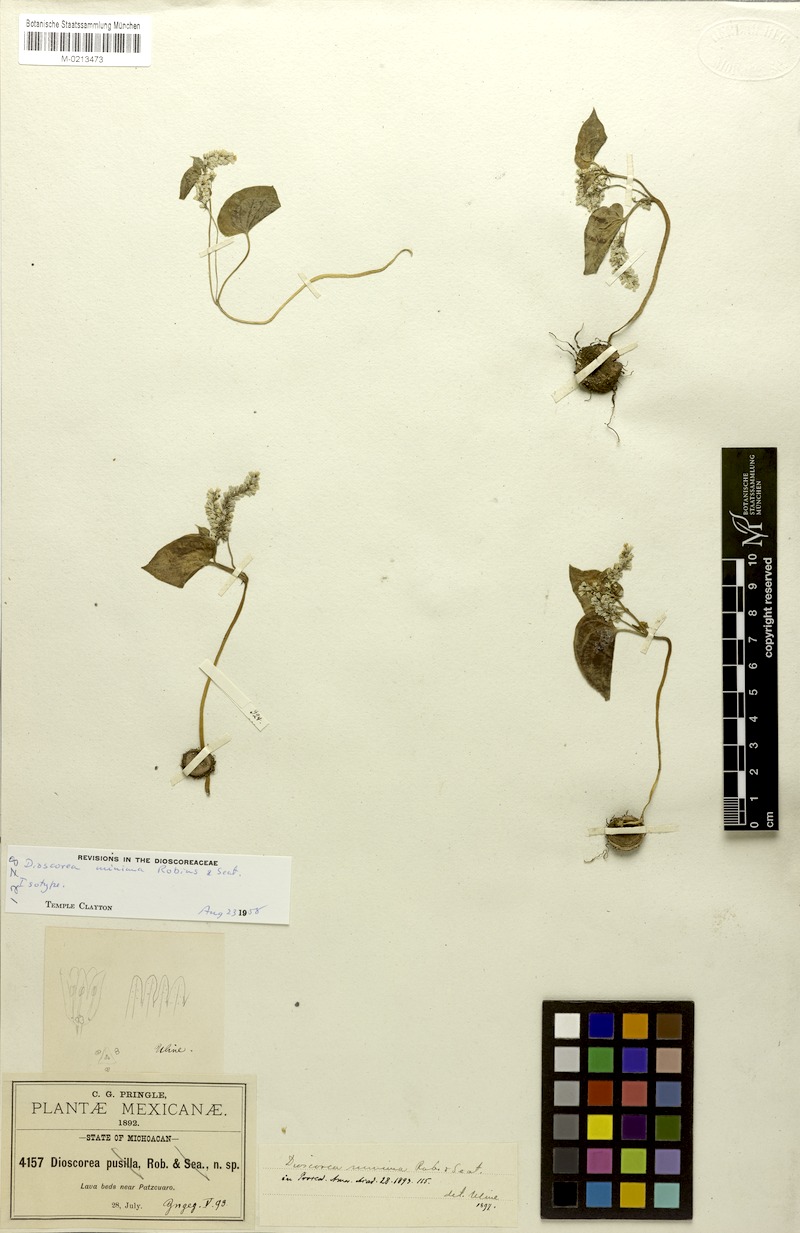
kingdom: Plantae
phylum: Tracheophyta
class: Liliopsida
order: Dioscoreales
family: Dioscoreaceae
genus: Dioscorea
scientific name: Dioscorea minima
